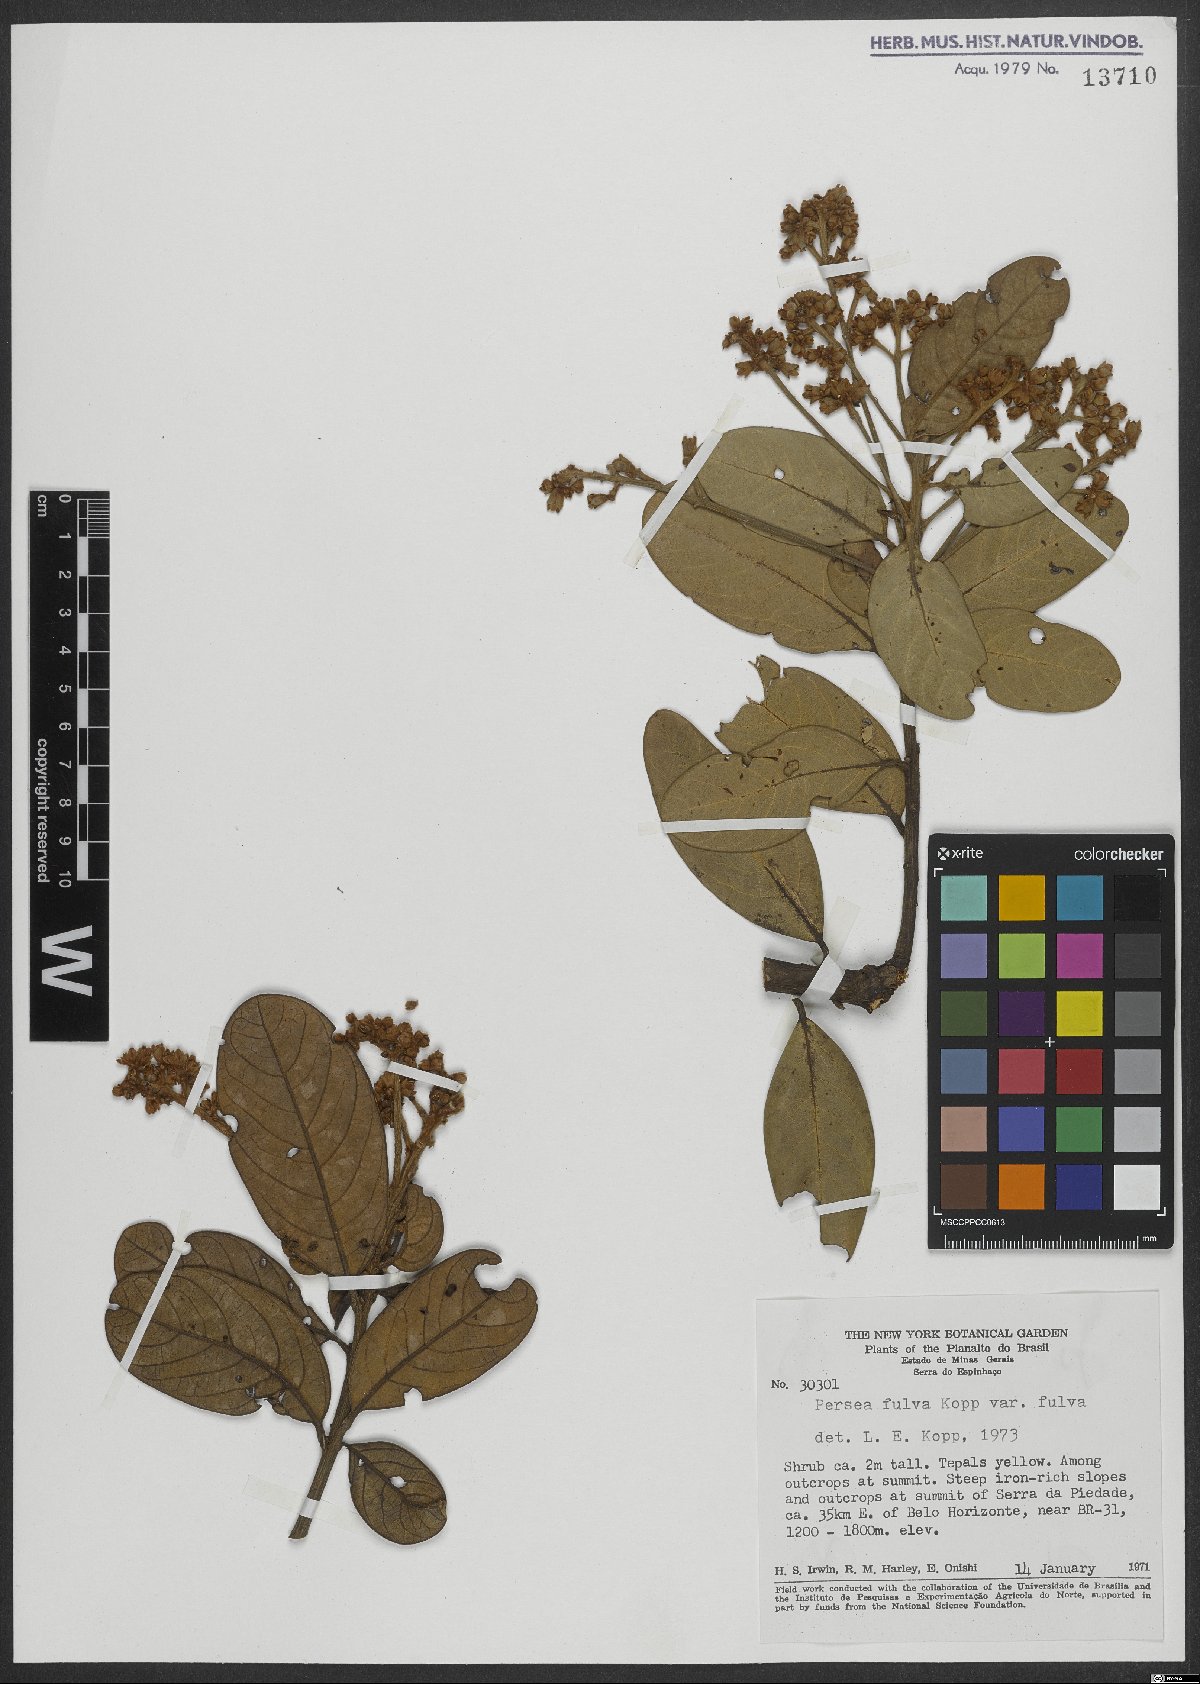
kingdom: Plantae
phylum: Tracheophyta
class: Magnoliopsida
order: Laurales
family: Lauraceae
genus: Persea
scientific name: Persea fulva
